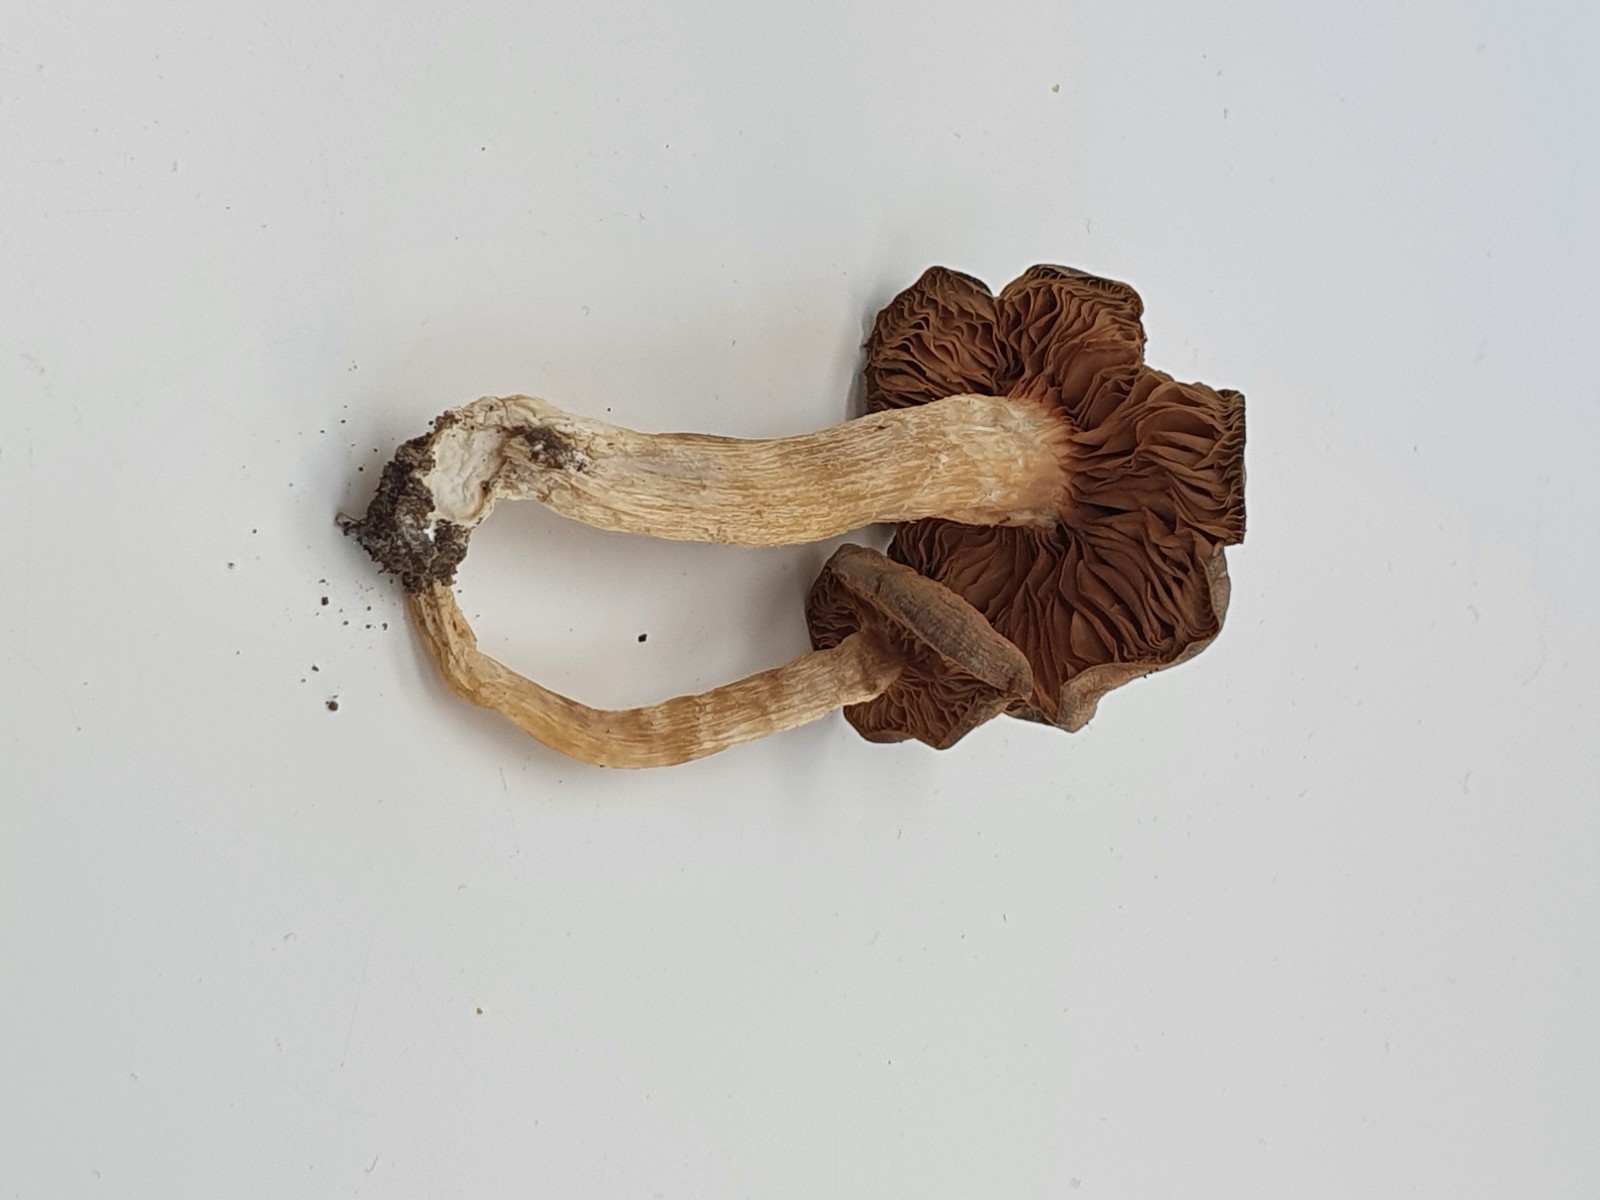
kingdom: Fungi
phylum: Basidiomycota
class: Agaricomycetes
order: Agaricales
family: Entolomataceae
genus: Entoloma
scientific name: Entoloma
